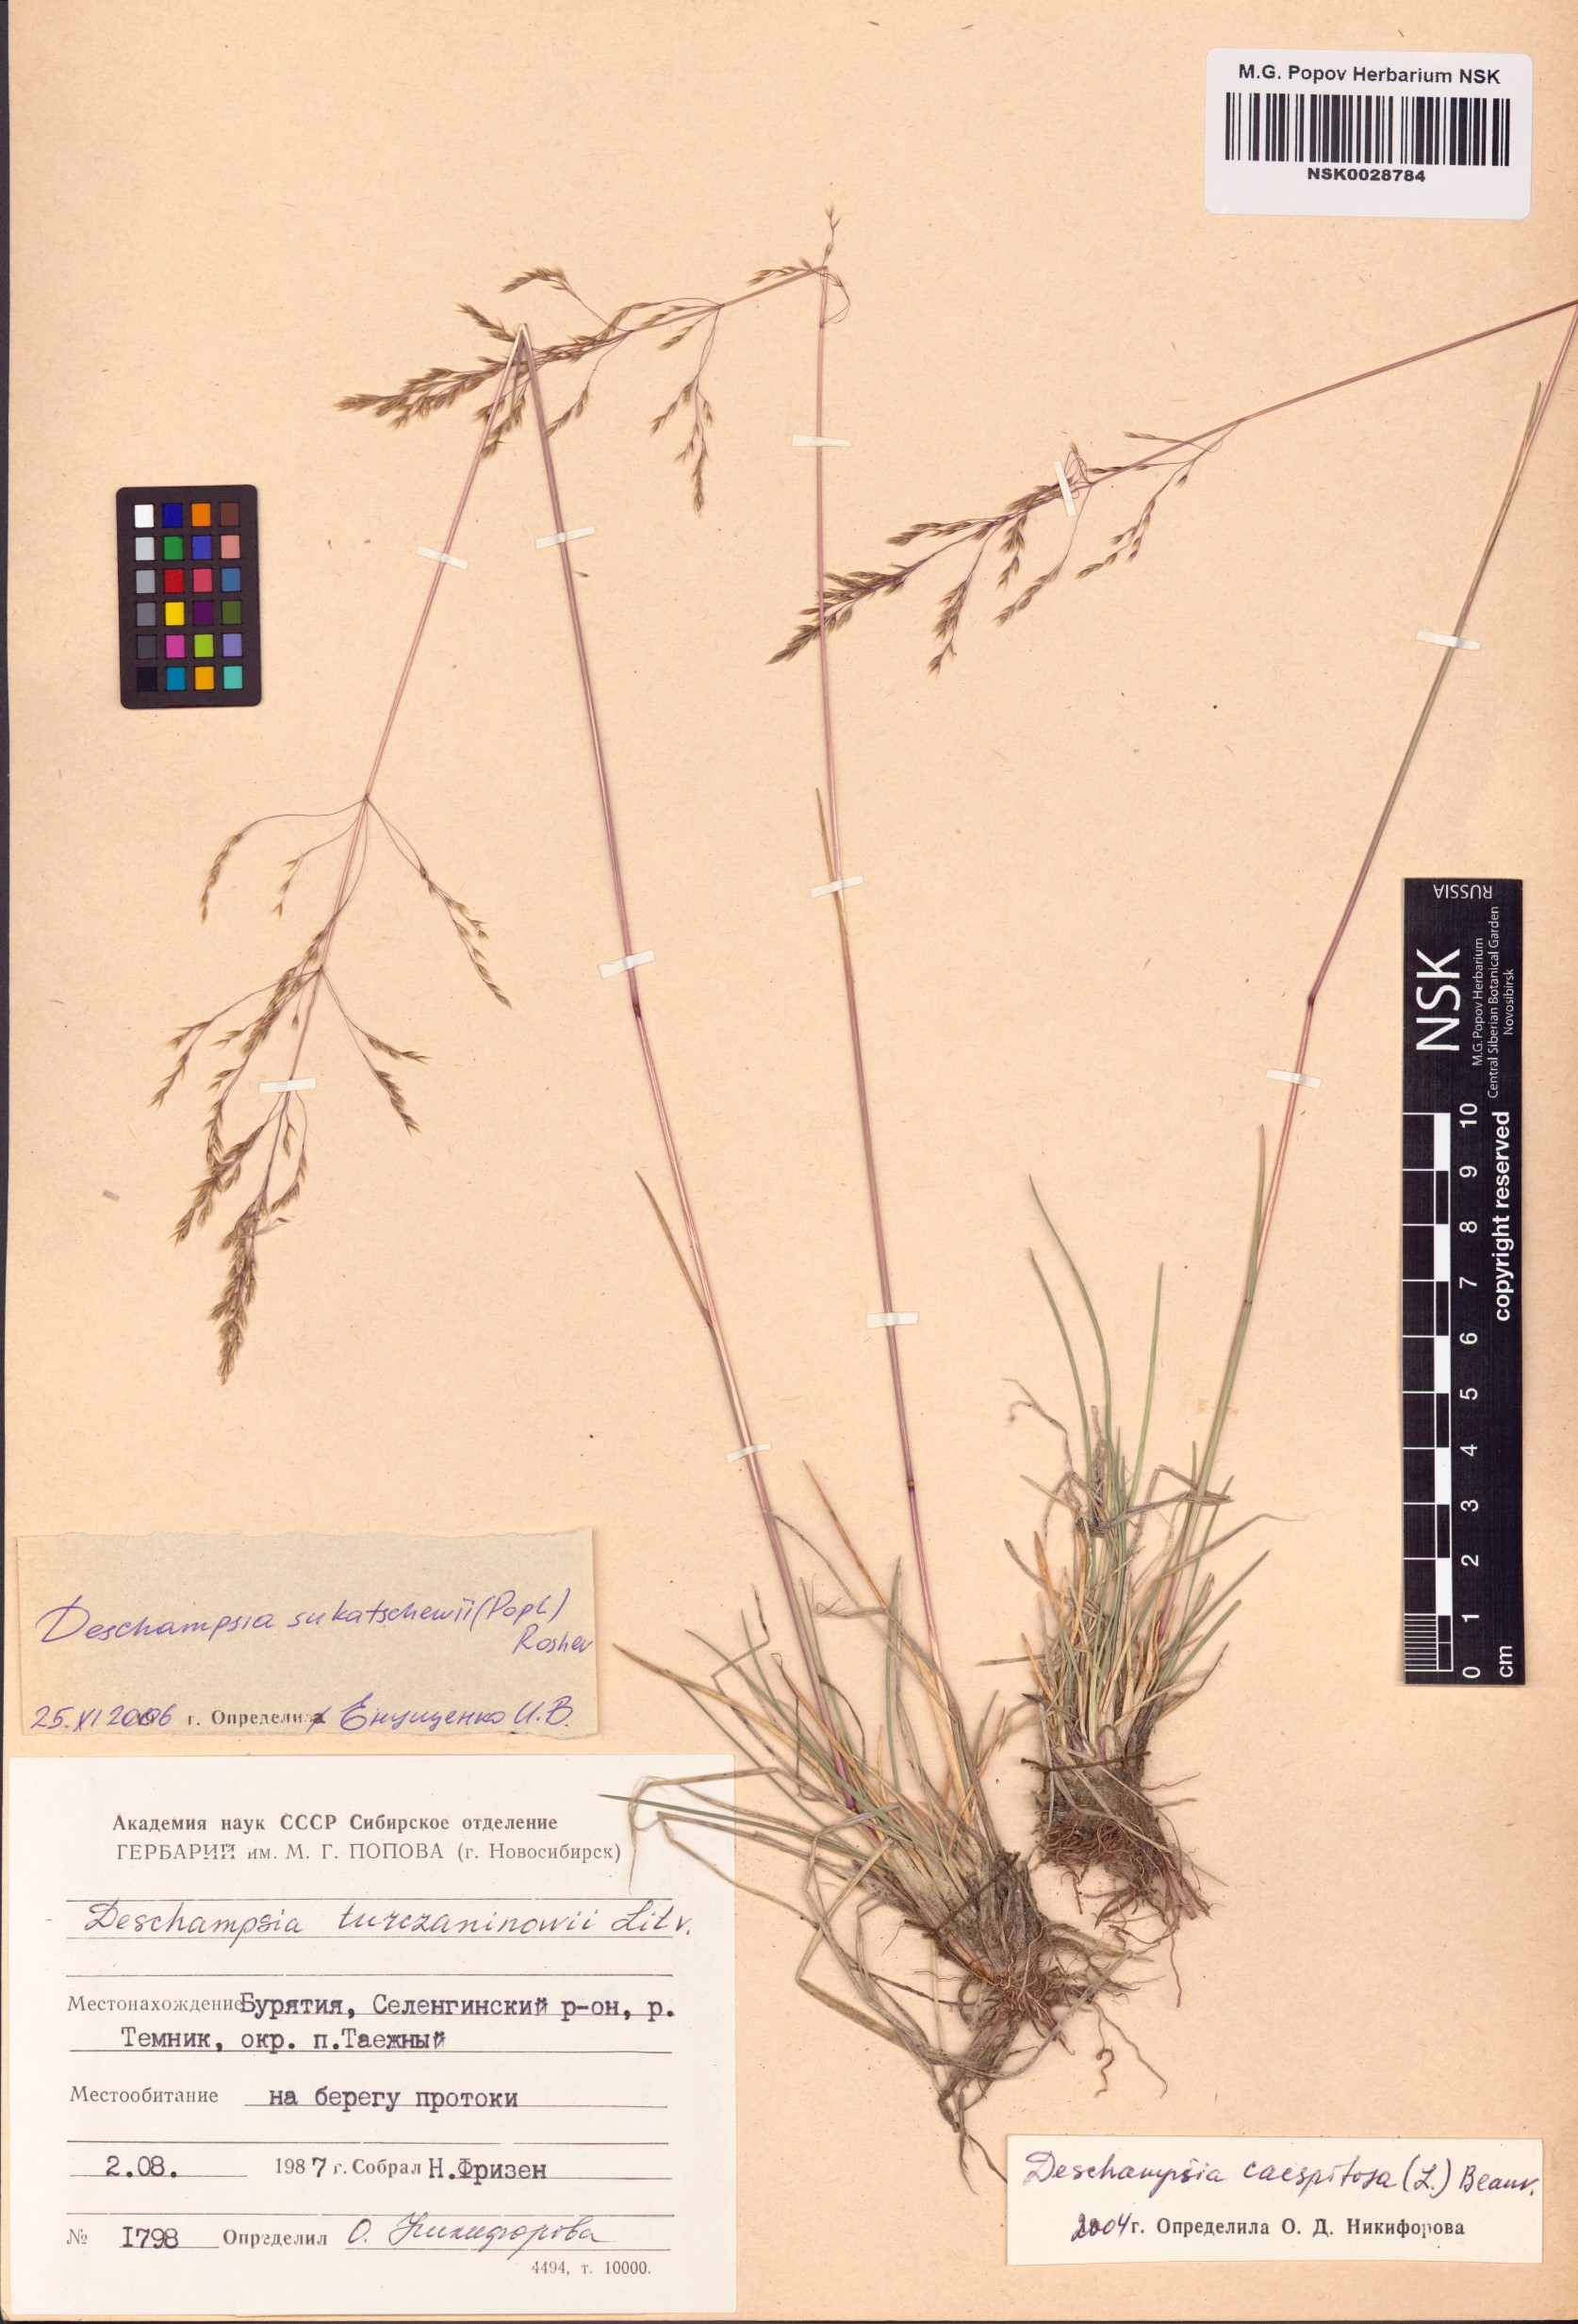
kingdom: Plantae
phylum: Tracheophyta
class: Liliopsida
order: Poales
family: Poaceae
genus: Deschampsia
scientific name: Deschampsia cespitosa
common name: Tufted hair-grass
